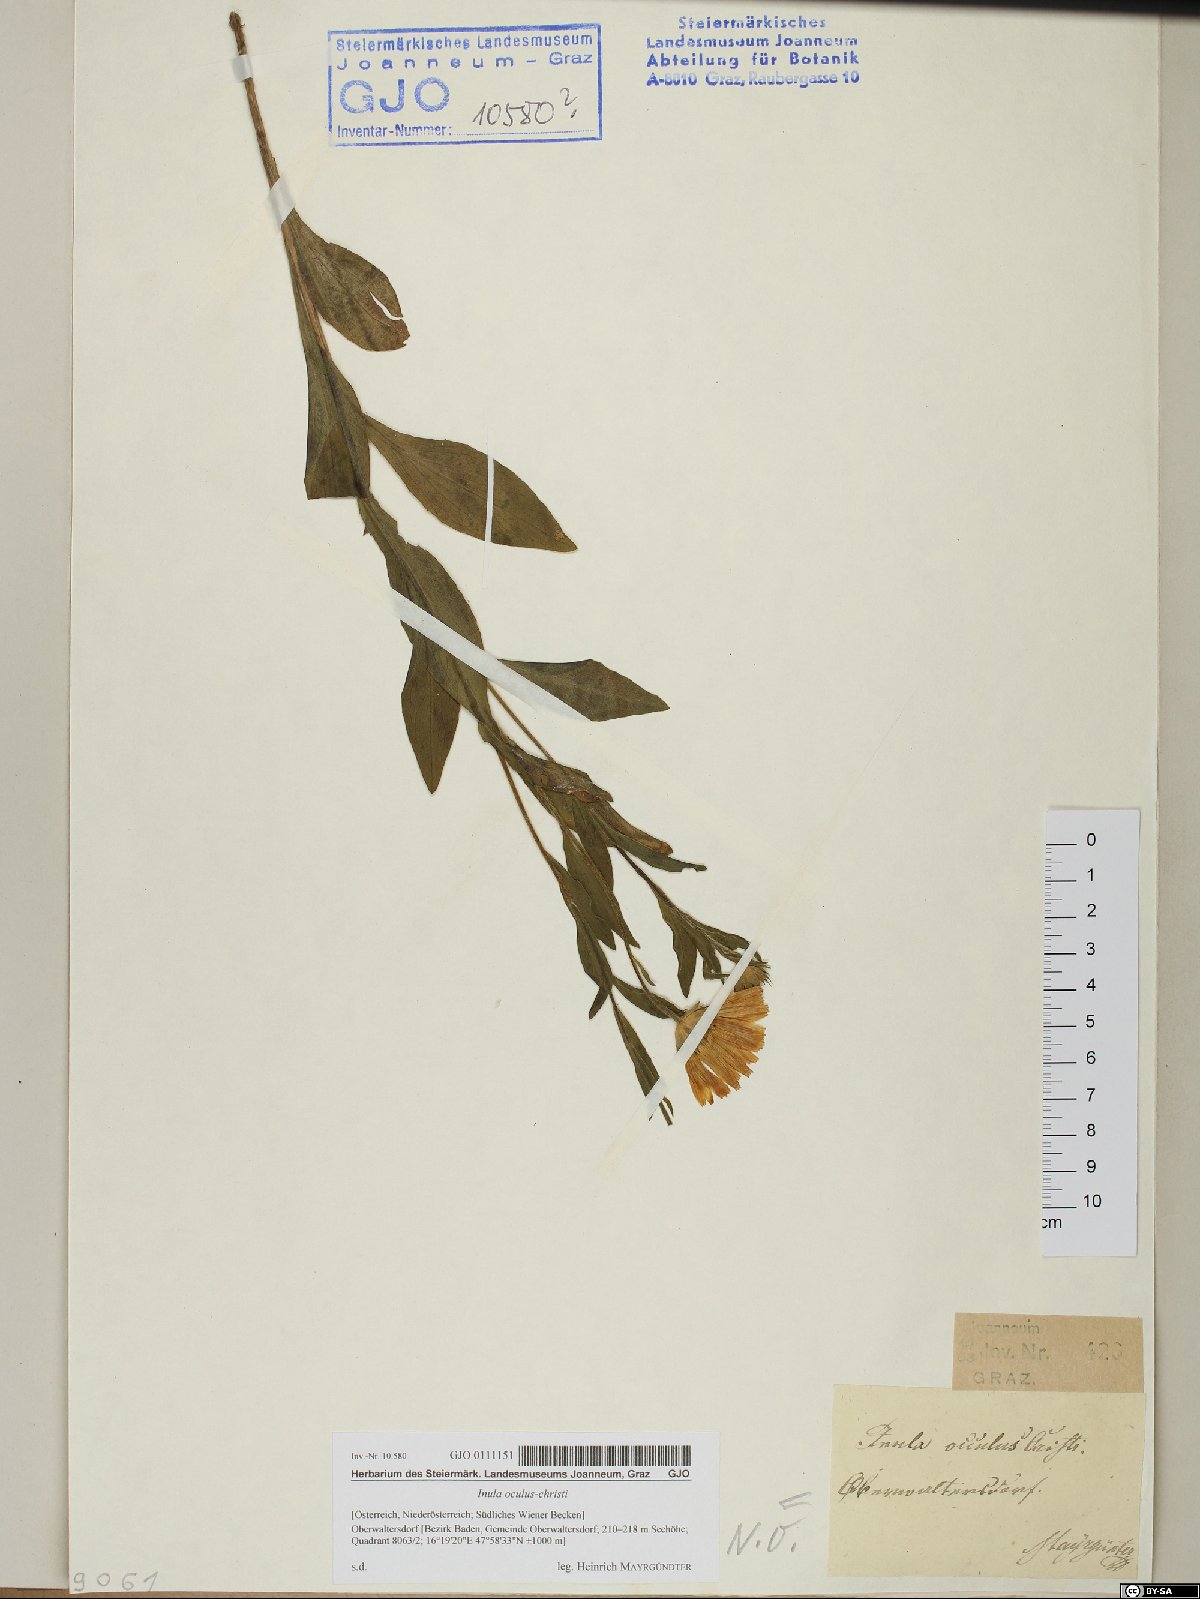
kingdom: Plantae
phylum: Tracheophyta
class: Magnoliopsida
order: Asterales
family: Asteraceae
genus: Pentanema
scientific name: Pentanema oculus-christi
